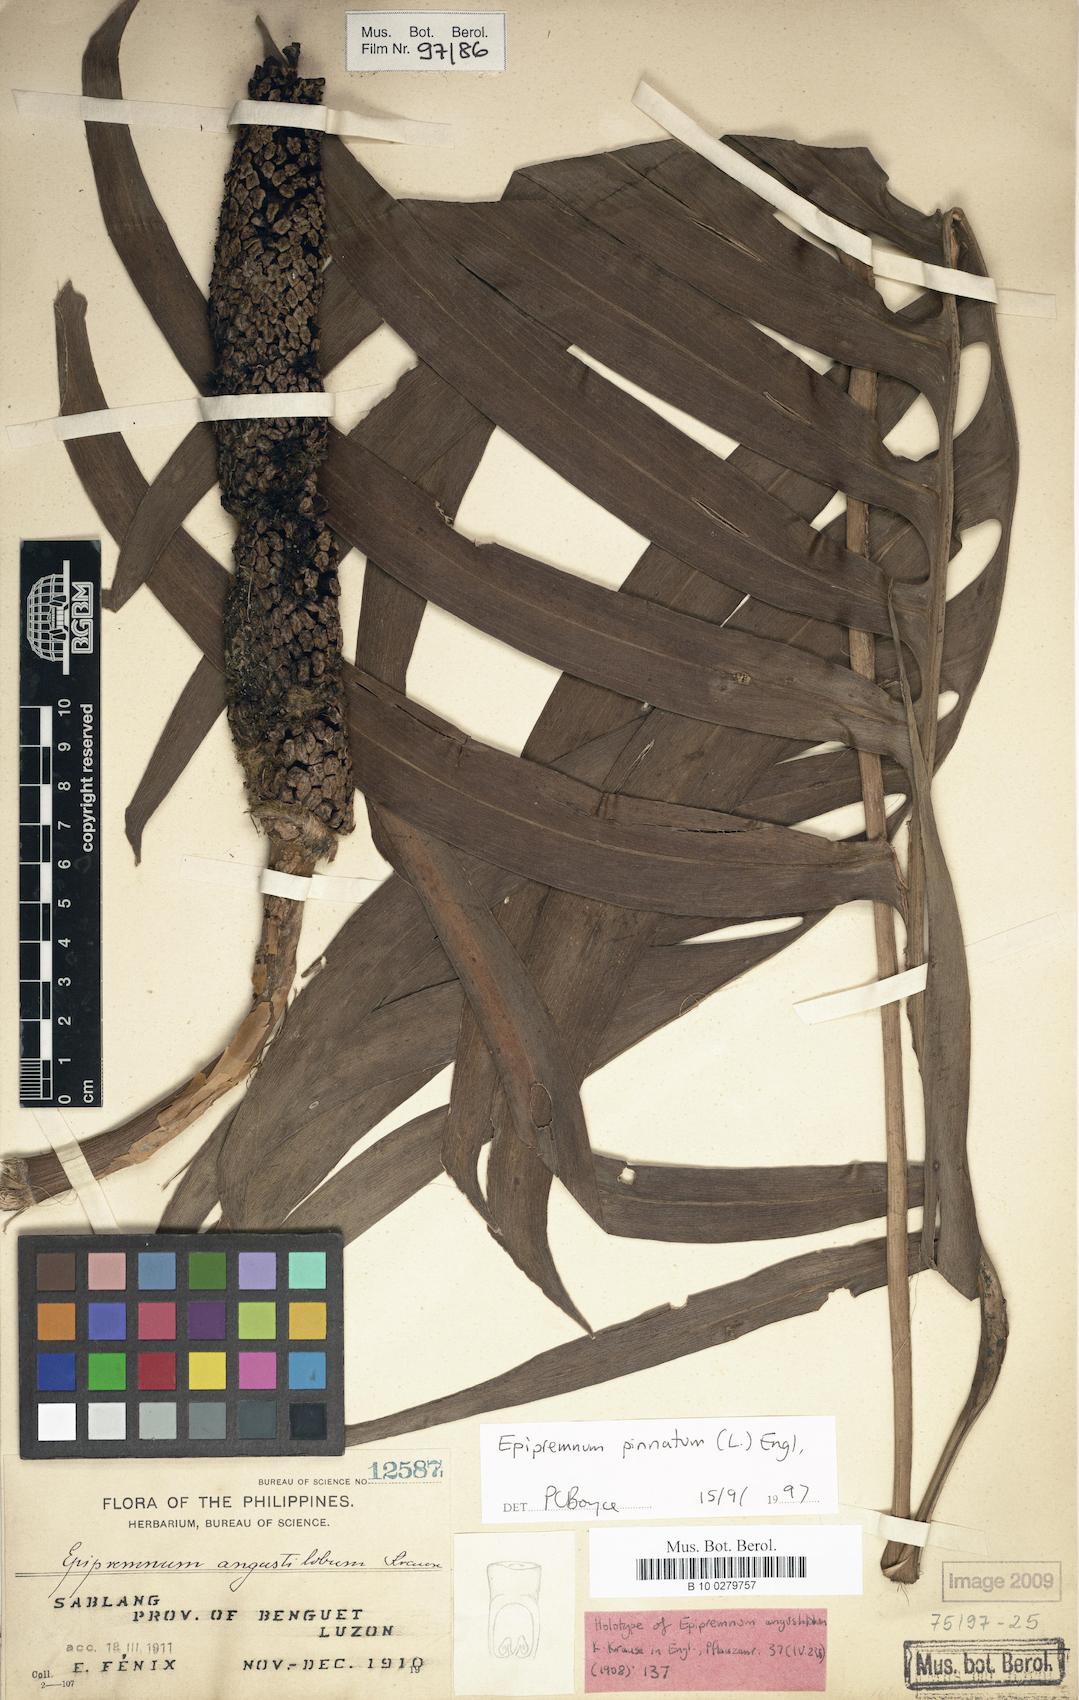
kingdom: Plantae
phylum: Tracheophyta
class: Liliopsida
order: Alismatales
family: Araceae
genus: Epipremnum
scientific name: Epipremnum pinnatum
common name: Centipede tongavine
